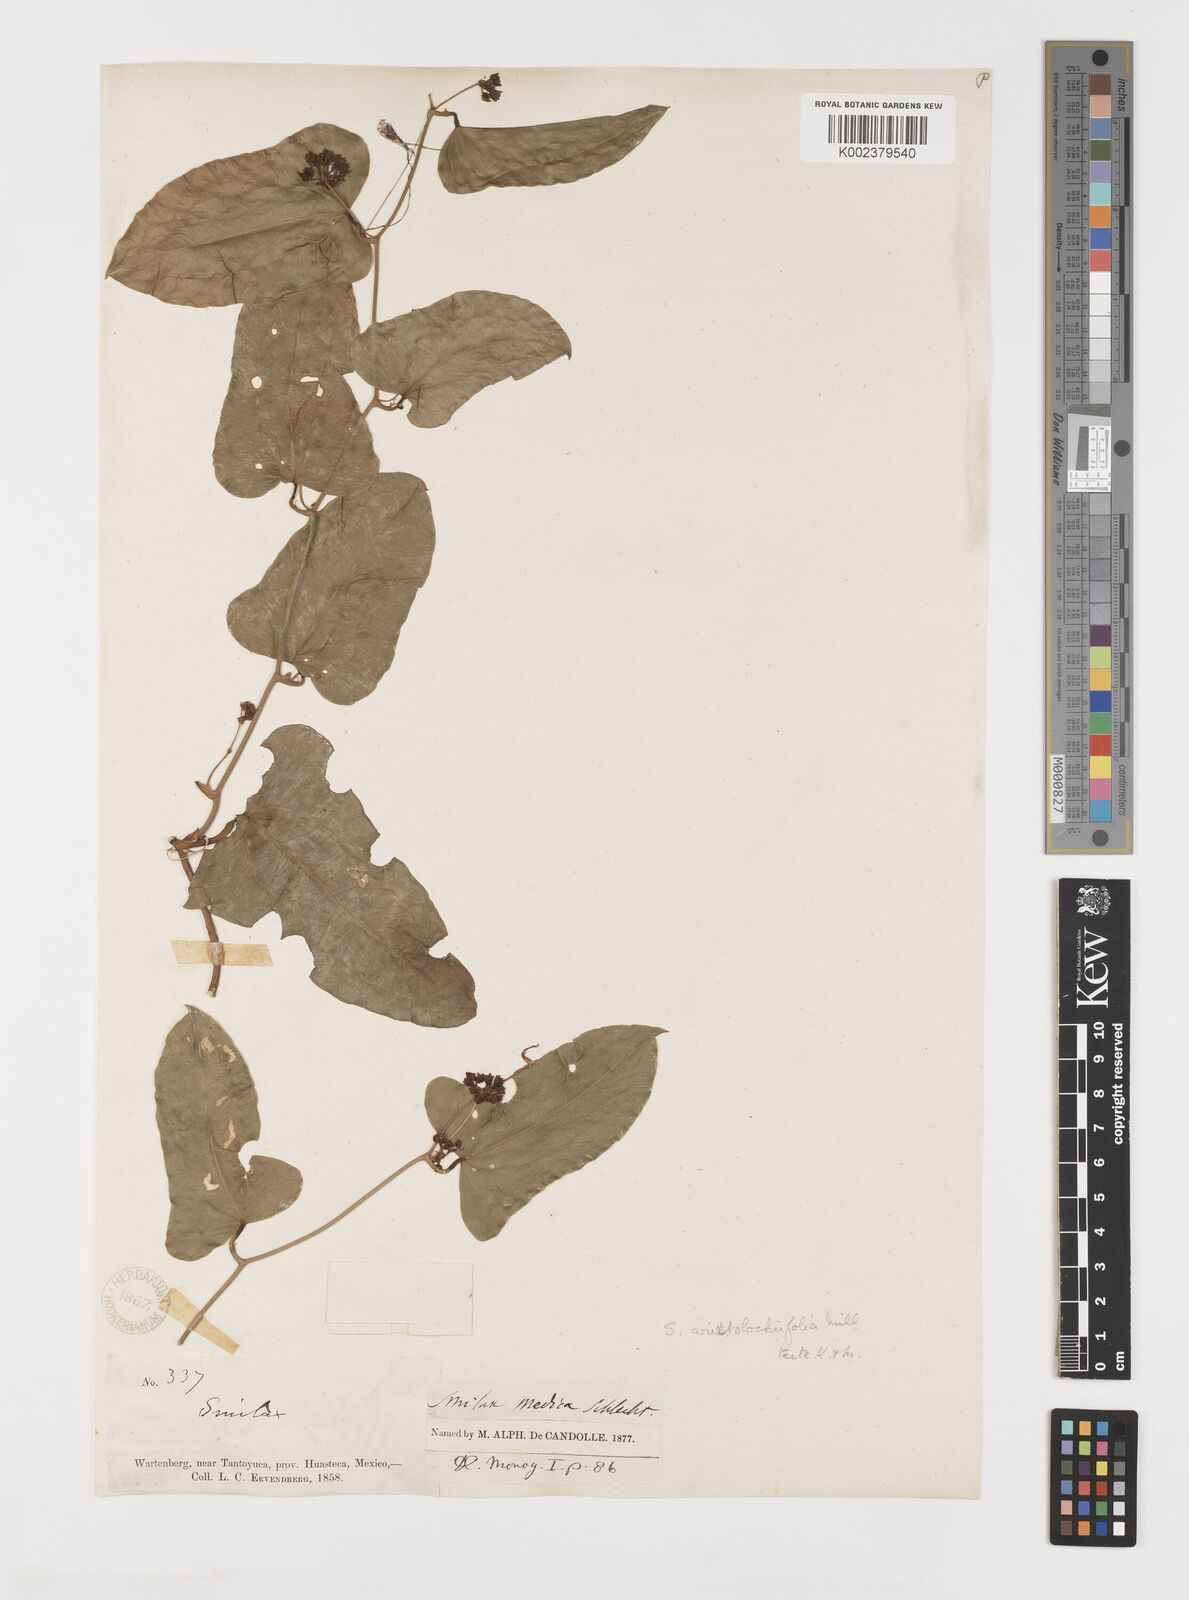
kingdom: Plantae
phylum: Tracheophyta
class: Liliopsida
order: Liliales
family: Smilacaceae
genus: Smilax
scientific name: Smilax aristolochiifolia
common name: Sarsaparilla
